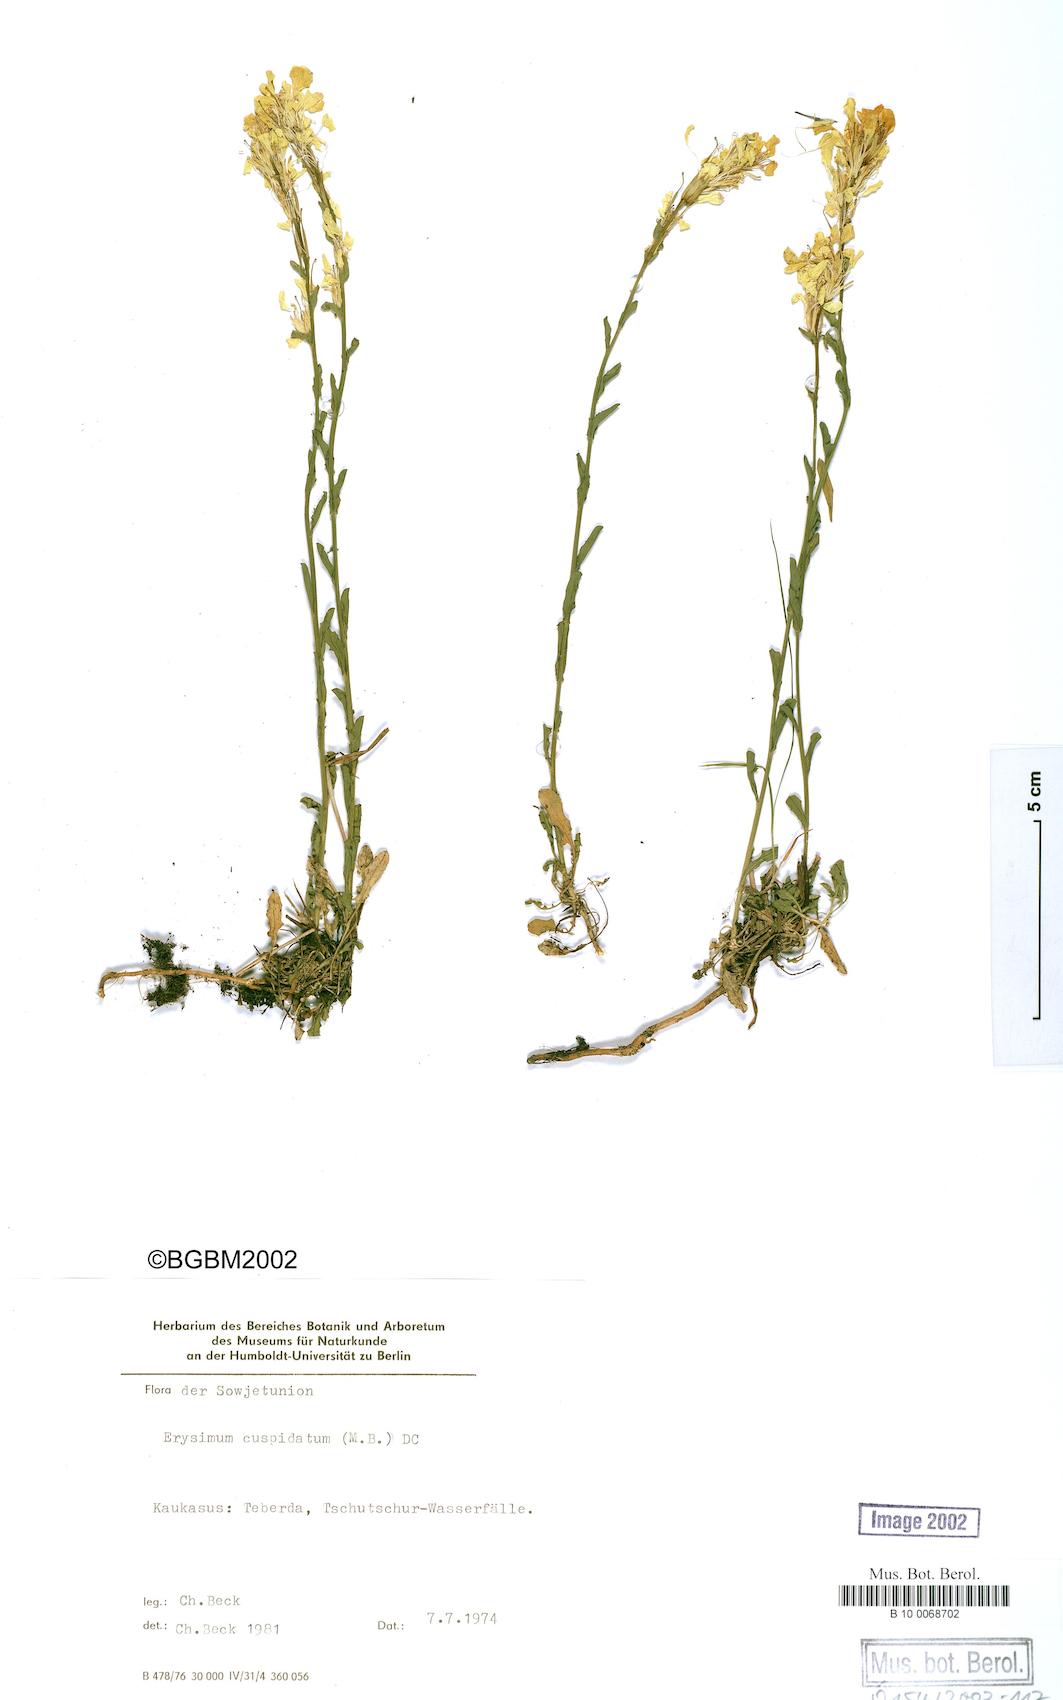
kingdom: Plantae
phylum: Tracheophyta
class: Magnoliopsida
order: Brassicales
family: Brassicaceae
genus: Erysimum
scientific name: Erysimum froehneri
